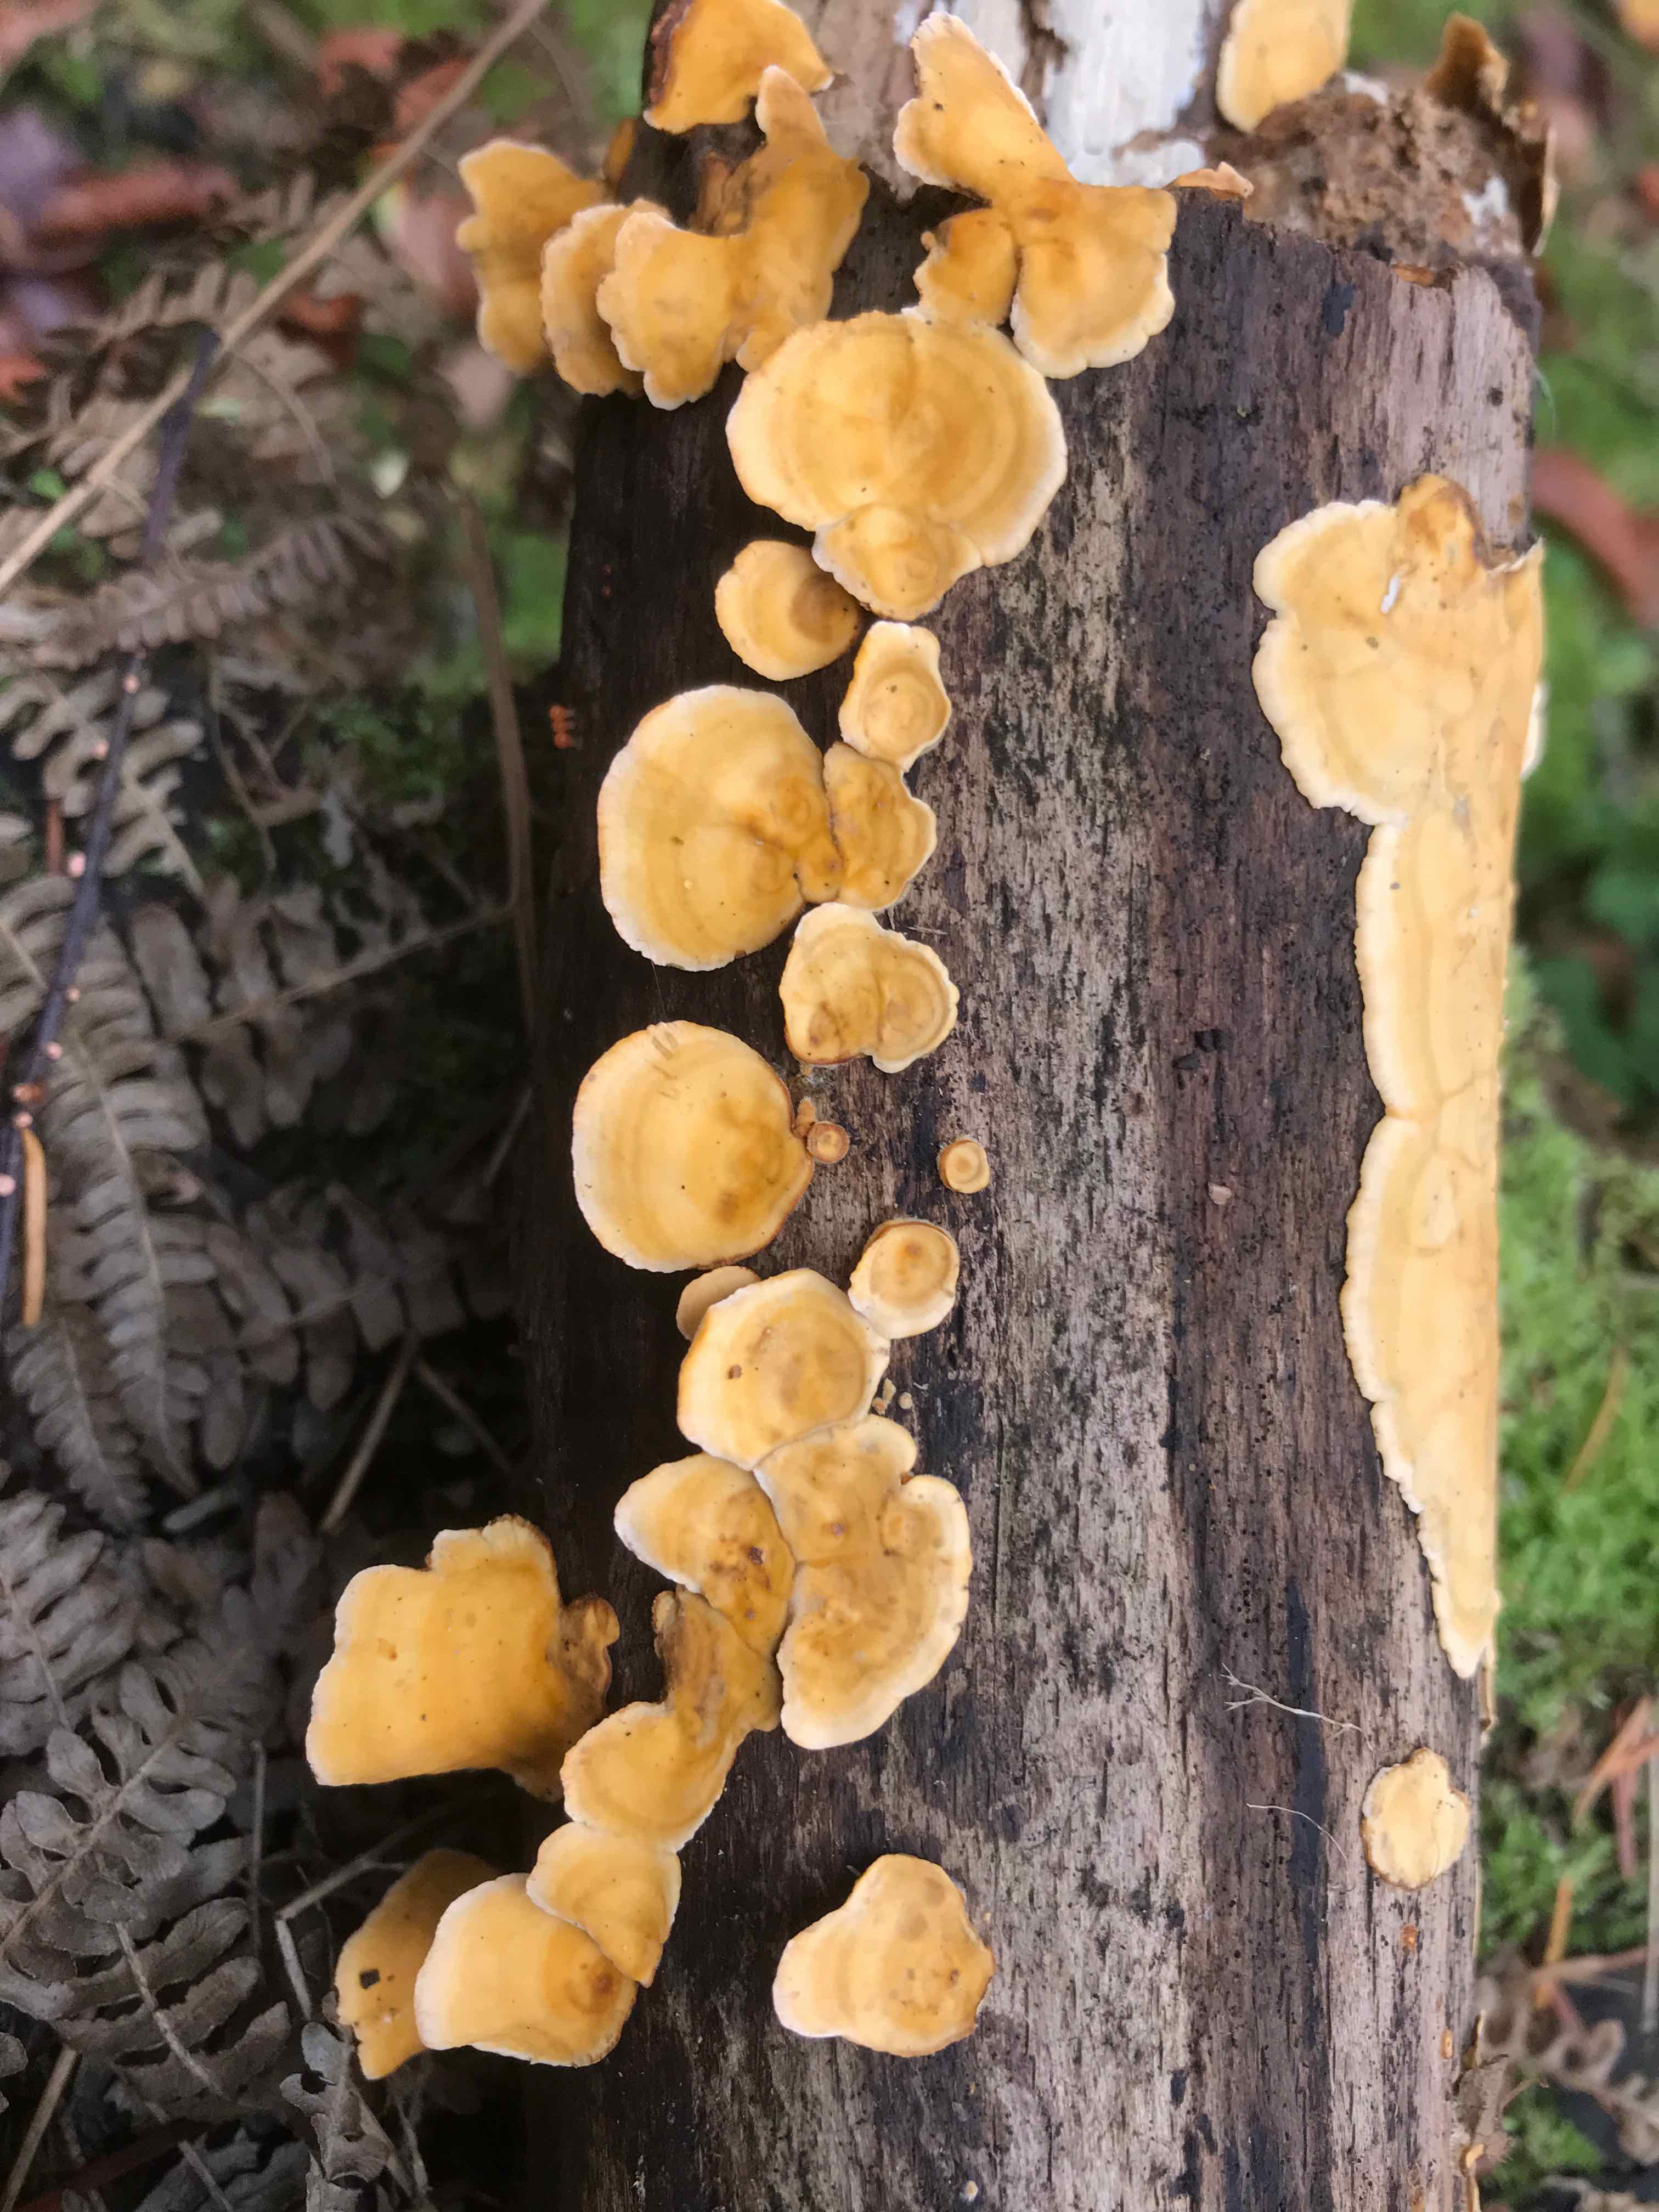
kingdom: Fungi
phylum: Basidiomycota
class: Agaricomycetes
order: Russulales
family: Stereaceae
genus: Stereum
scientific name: Stereum hirsutum
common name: håret lædersvamp
